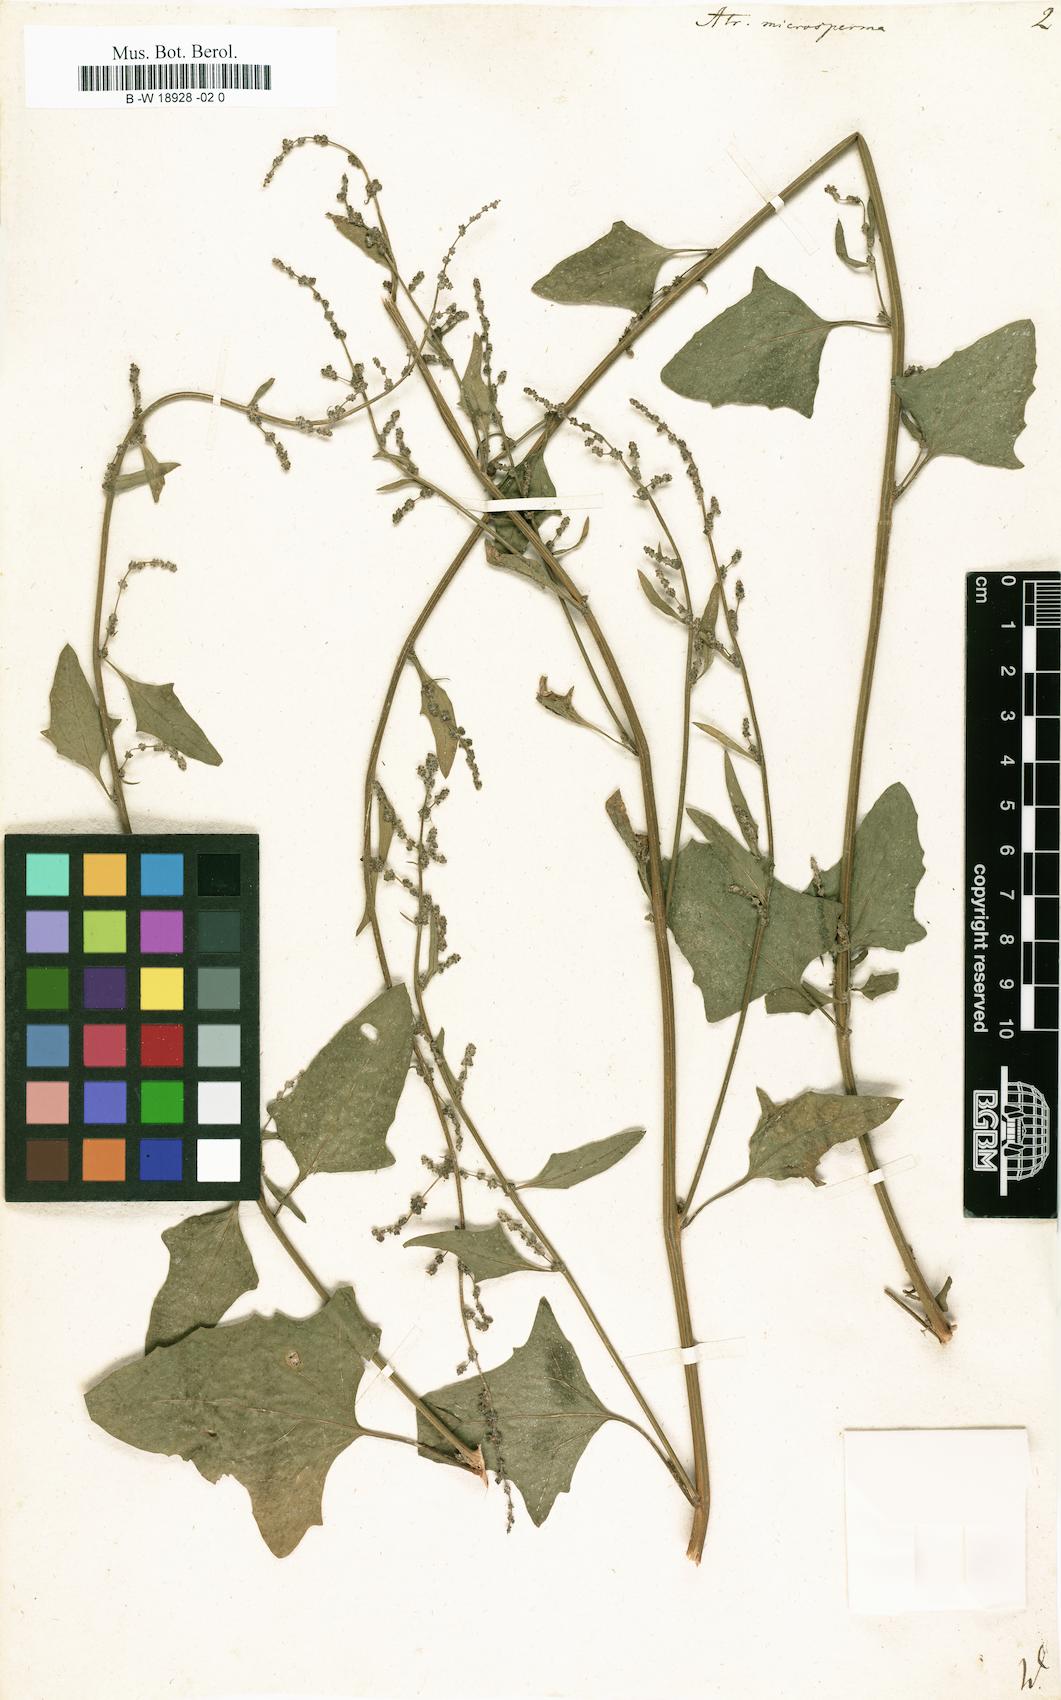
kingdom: Plantae
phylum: Tracheophyta
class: Magnoliopsida
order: Caryophyllales
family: Amaranthaceae
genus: Atriplex
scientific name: Atriplex prostrata
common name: Spear-leaved orache
